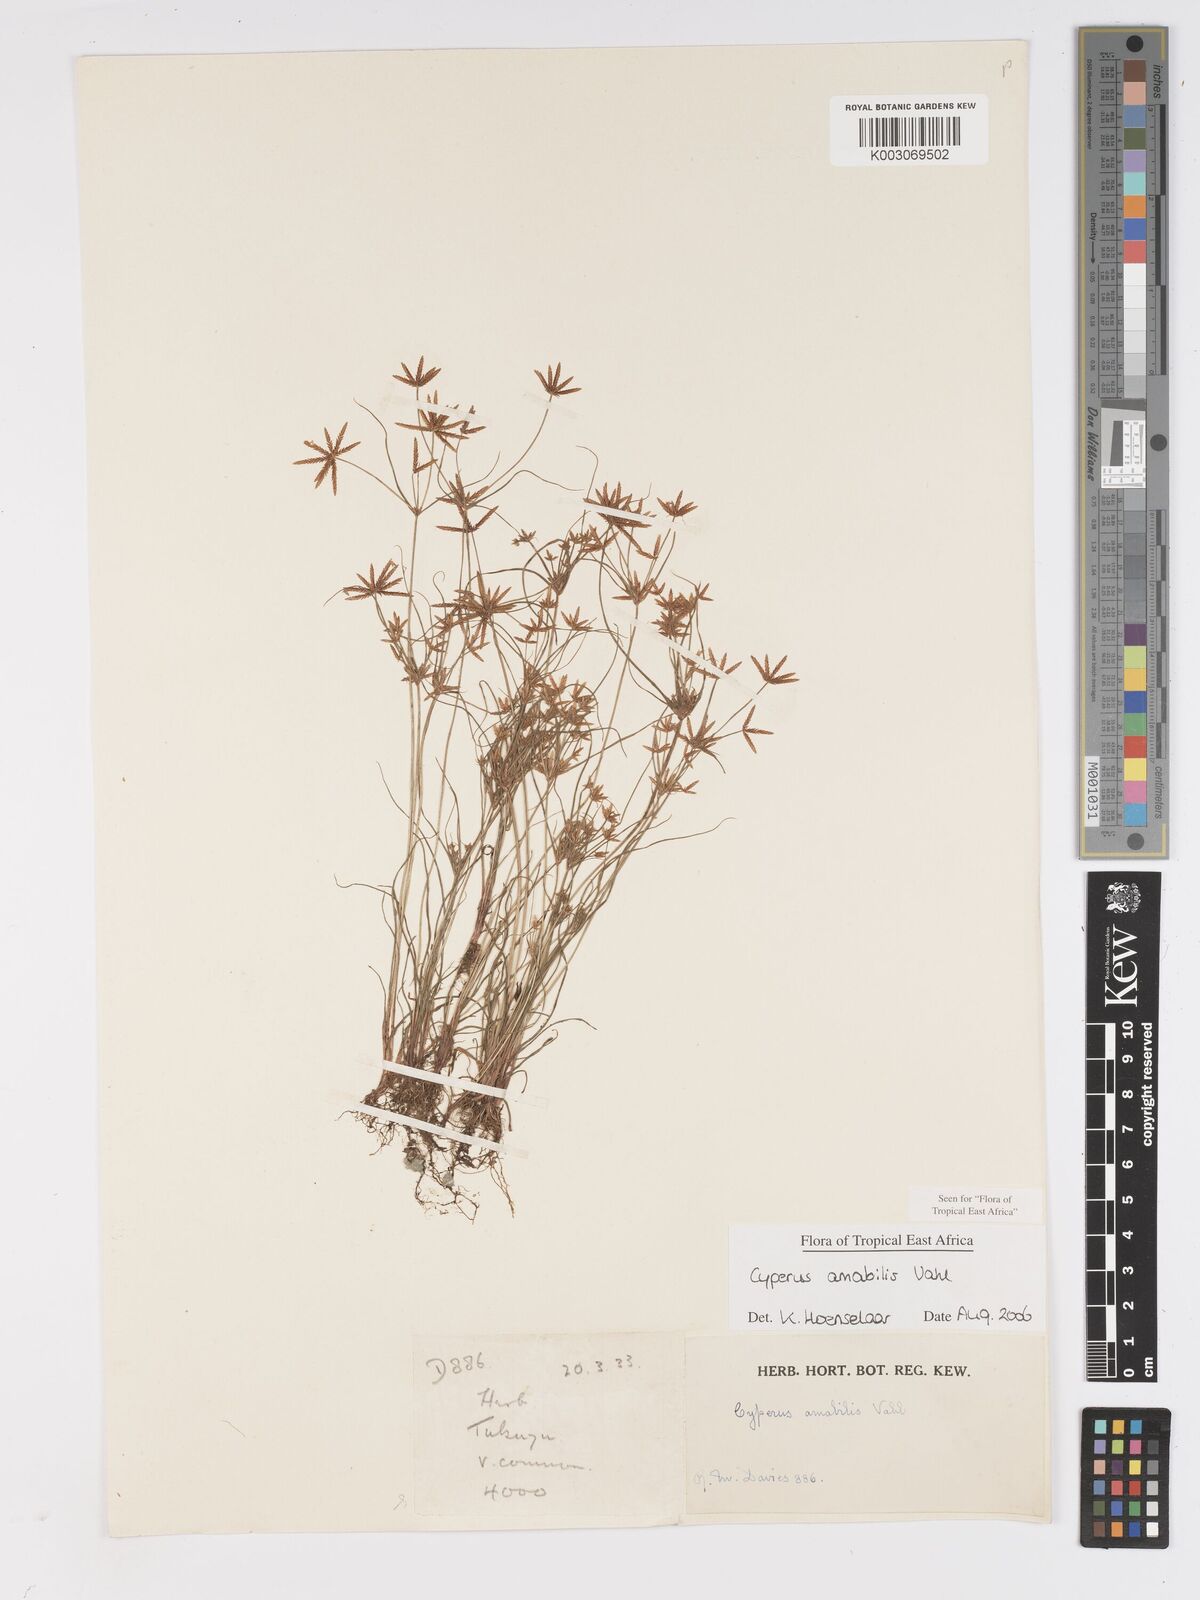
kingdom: Plantae
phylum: Tracheophyta
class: Liliopsida
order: Poales
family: Cyperaceae
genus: Cyperus
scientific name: Cyperus amabilis
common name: Foothill flat sedge
